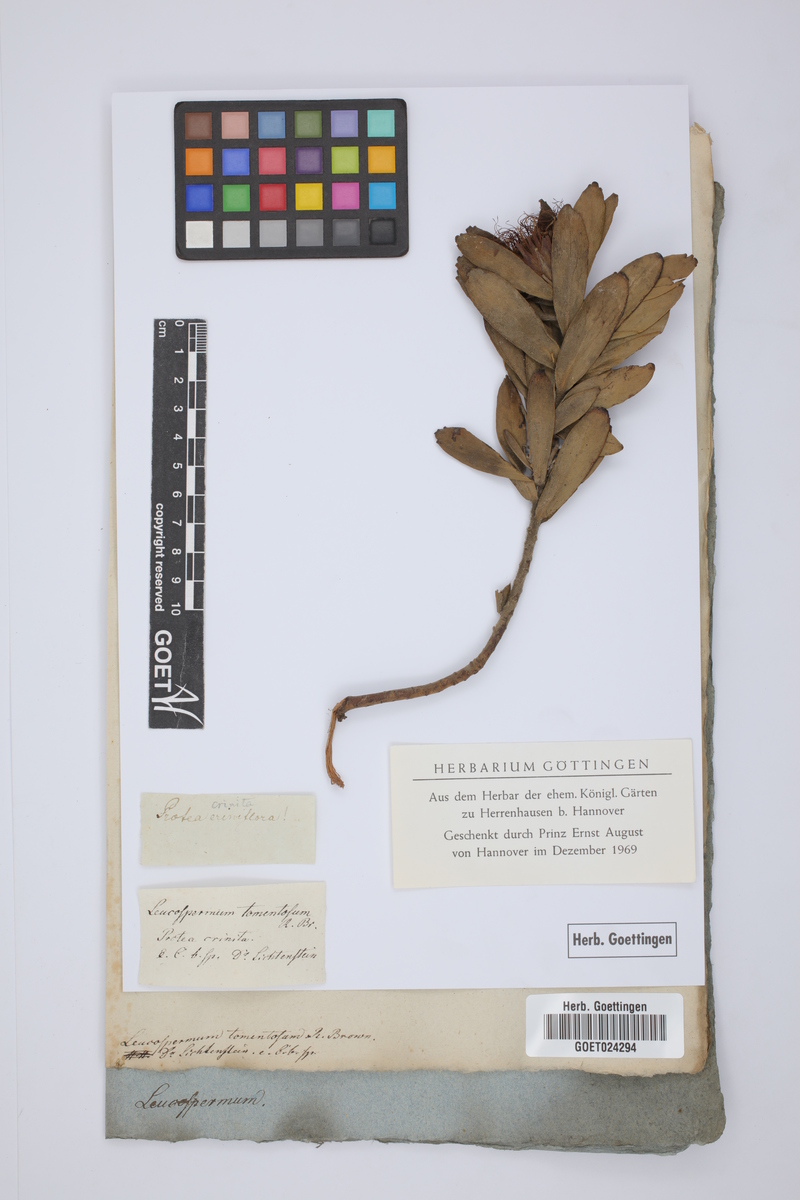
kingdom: Plantae
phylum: Tracheophyta
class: Magnoliopsida
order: Proteales
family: Proteaceae
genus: Leucospermum
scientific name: Leucospermum tomentosum
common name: Saldanha pincushion
